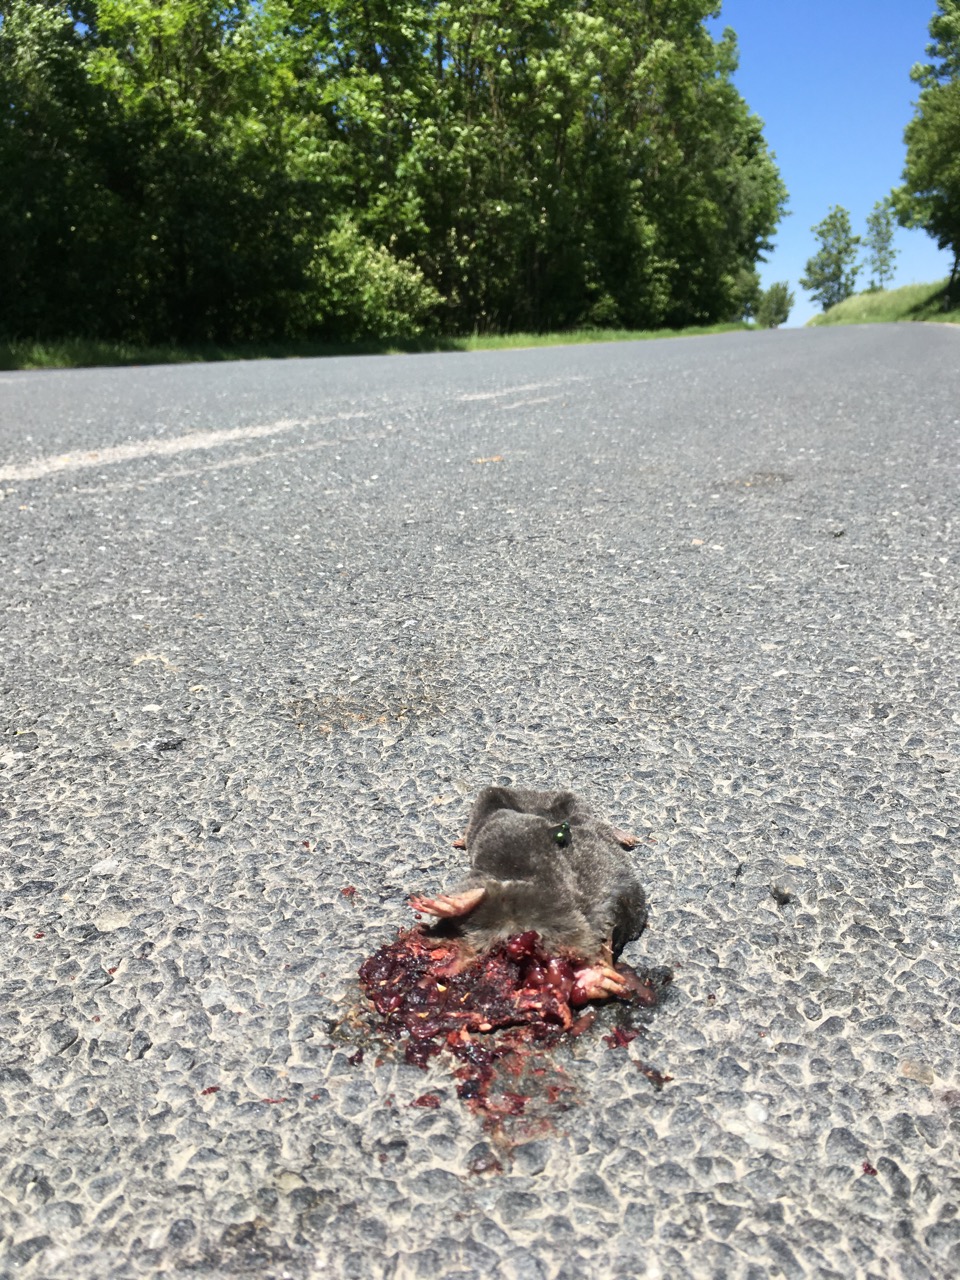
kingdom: Animalia
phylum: Chordata
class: Mammalia
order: Soricomorpha
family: Talpidae
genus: Talpa
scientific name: Talpa europaea
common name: European mole
